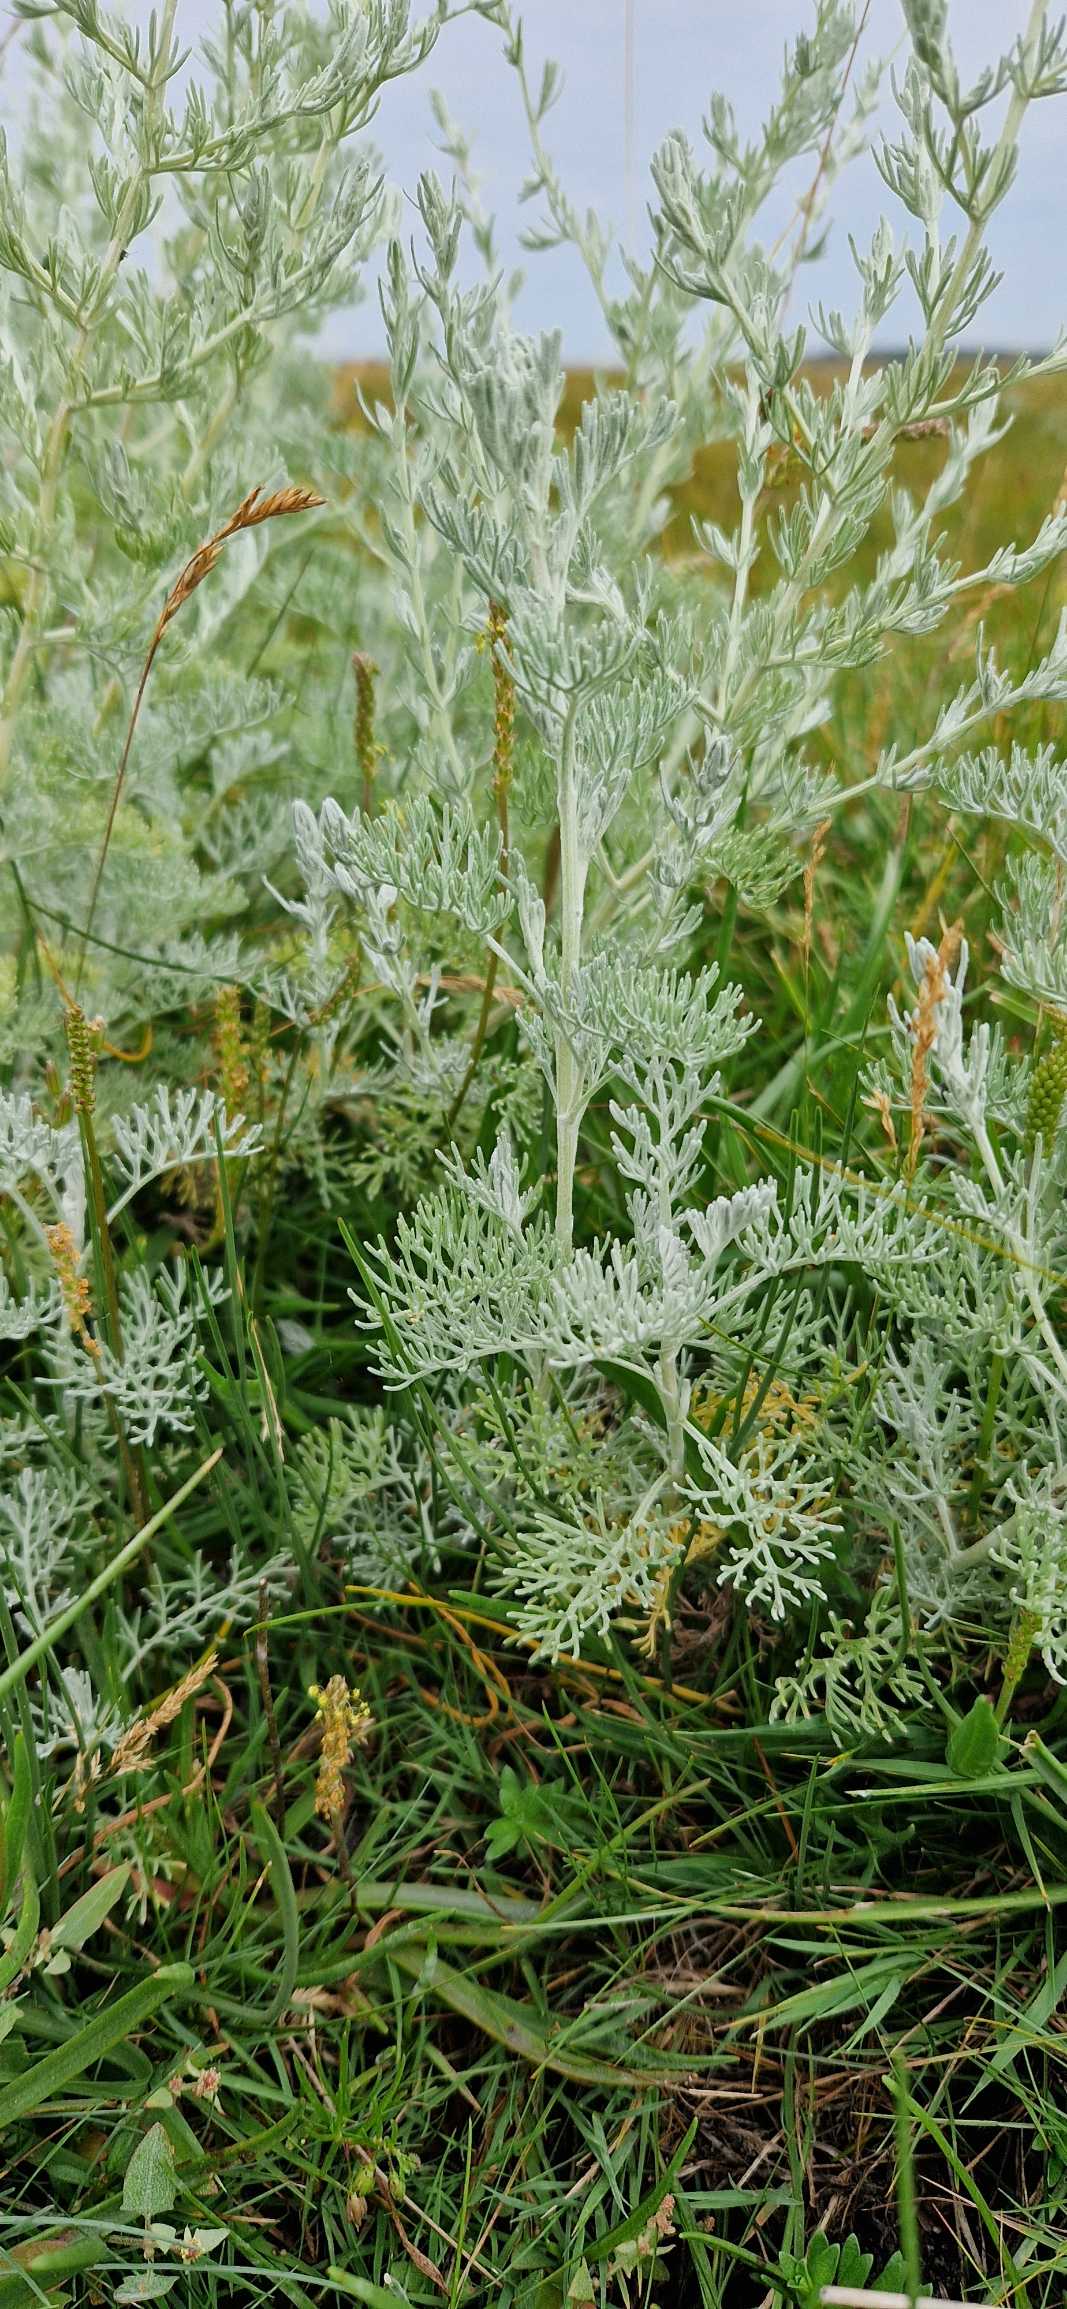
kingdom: Plantae
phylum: Tracheophyta
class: Magnoliopsida
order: Asterales
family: Asteraceae
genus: Artemisia
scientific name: Artemisia maritima
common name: Strandmalurt
